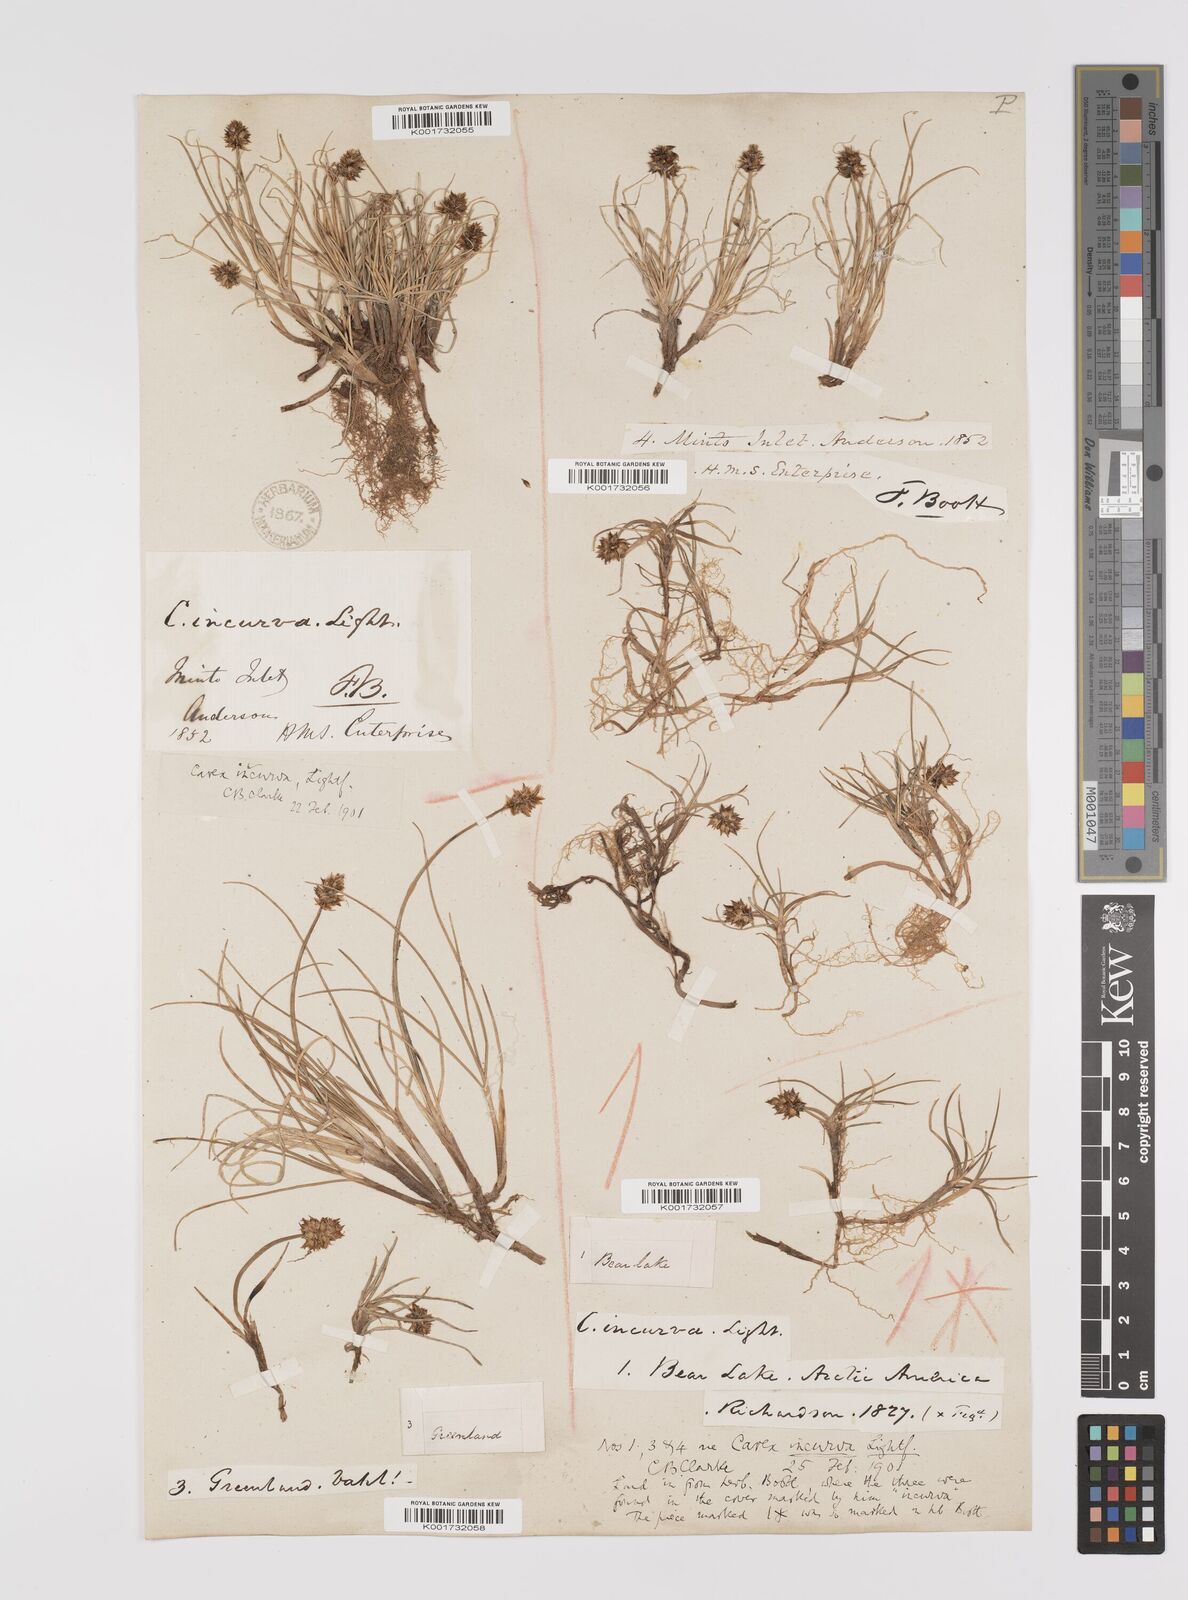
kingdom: Plantae
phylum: Tracheophyta
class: Liliopsida
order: Poales
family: Cyperaceae
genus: Carex
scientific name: Carex maritima
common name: Curved sedge
